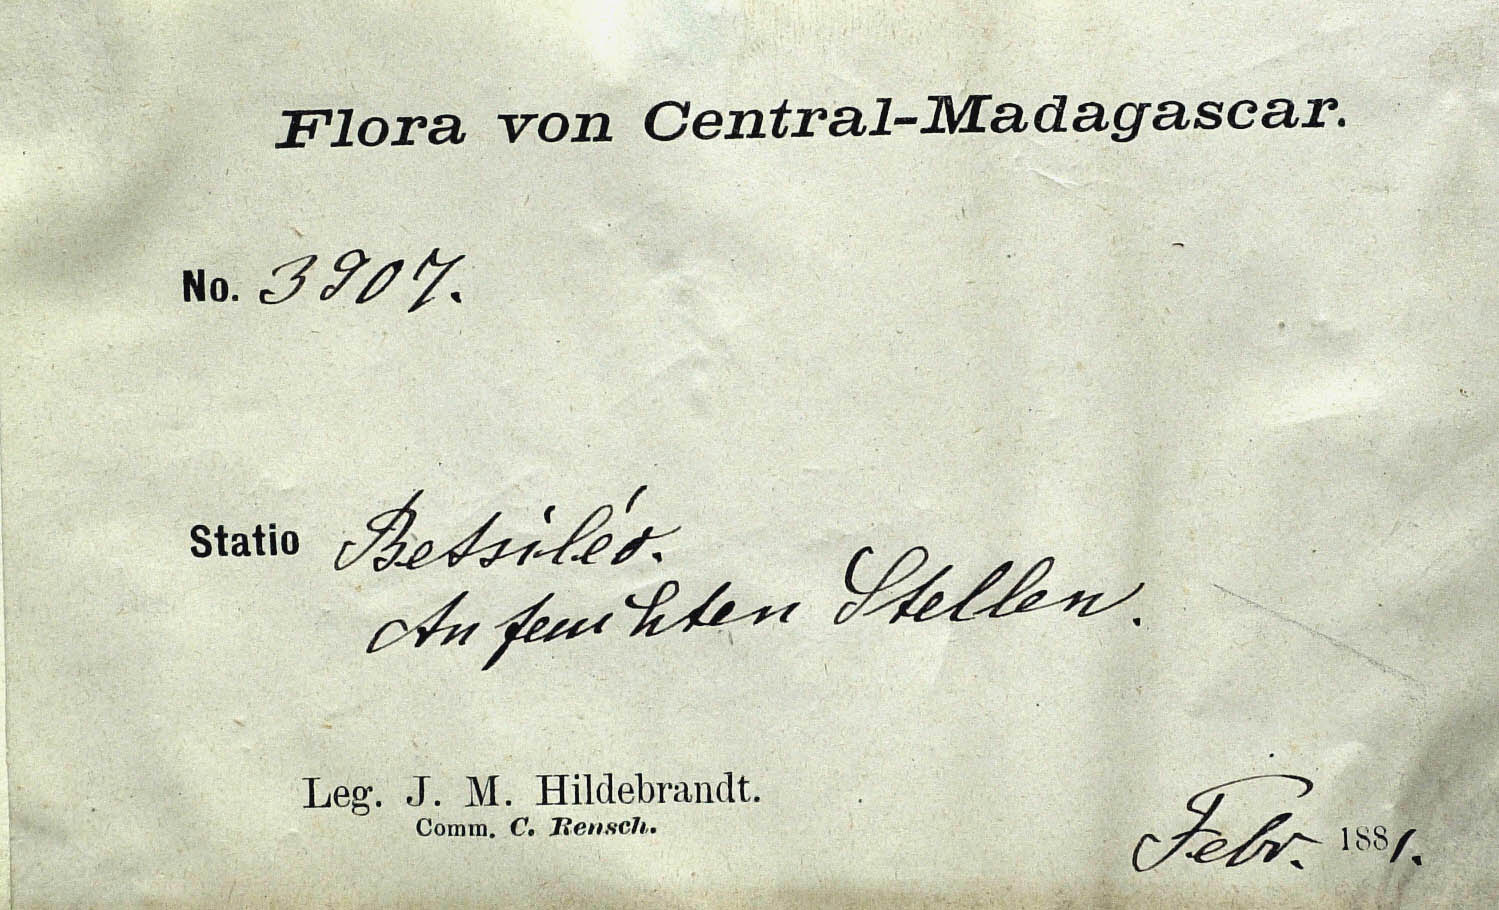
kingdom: Plantae
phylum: Tracheophyta
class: Magnoliopsida
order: Asterales
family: Asteraceae
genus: Hubertia
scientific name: Hubertia olivacea
